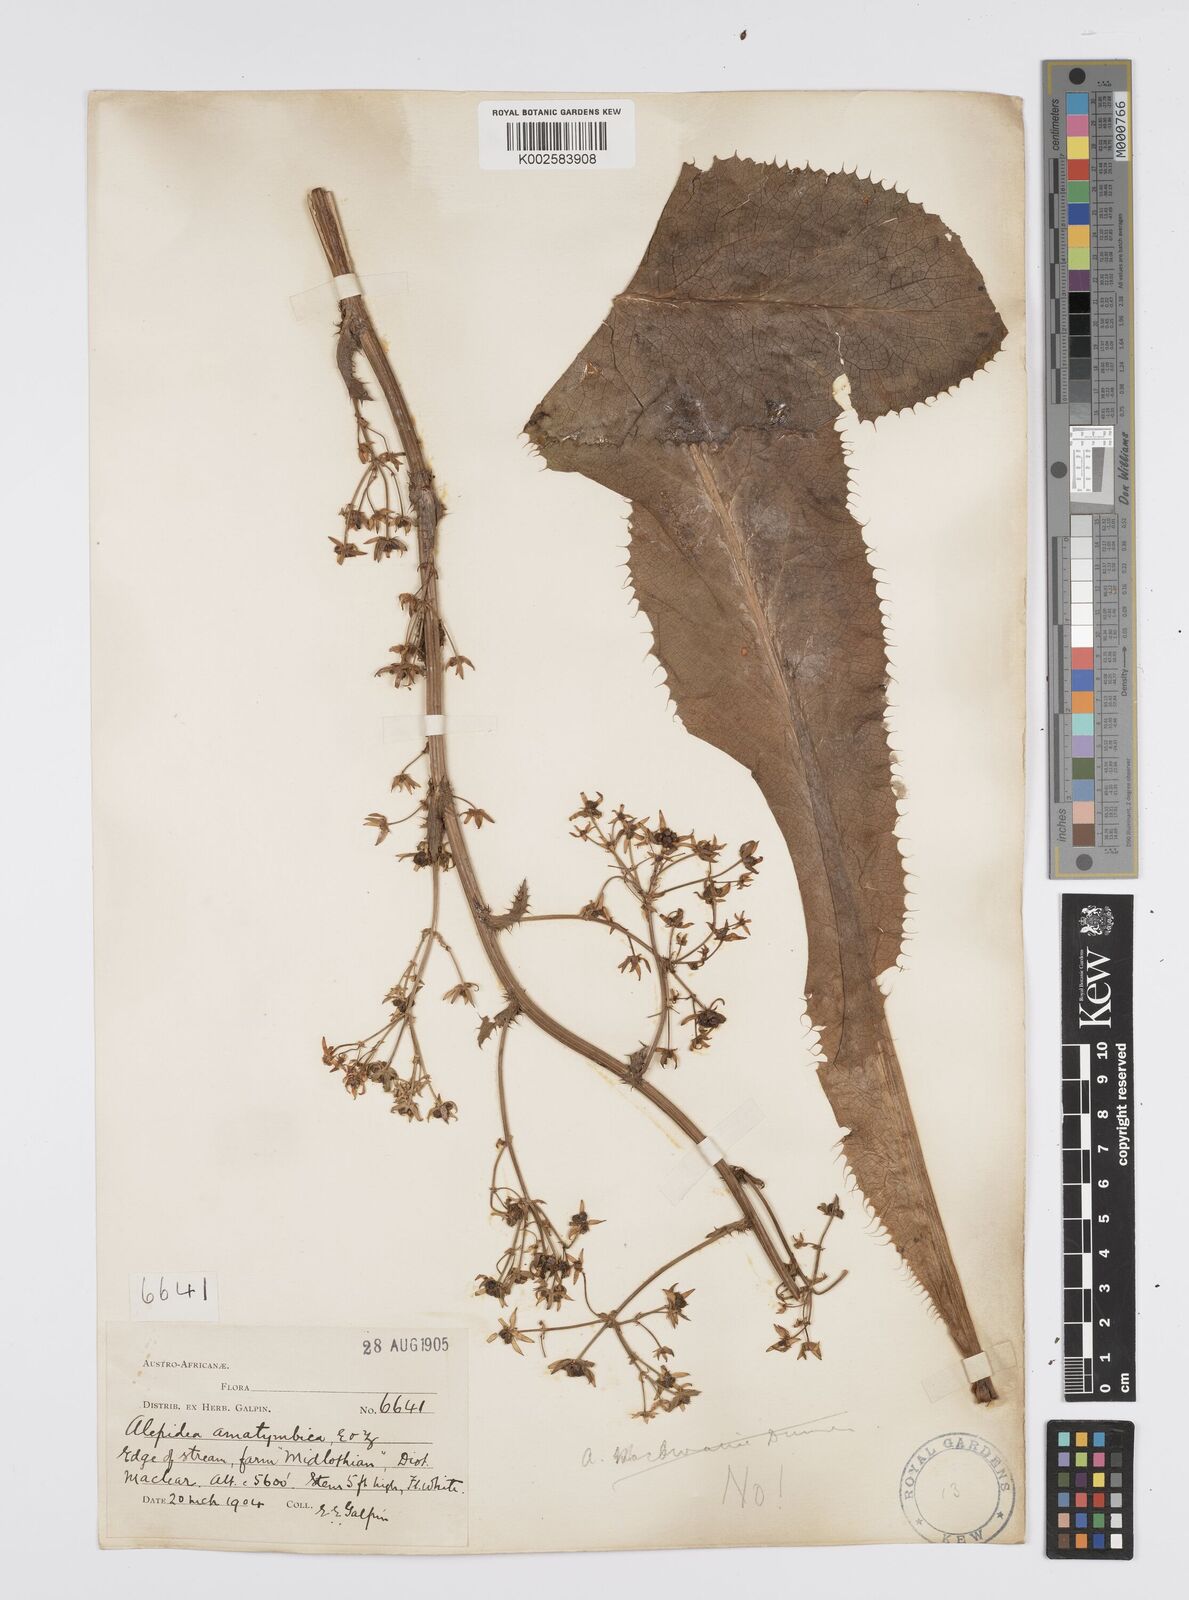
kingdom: Plantae
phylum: Tracheophyta
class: Magnoliopsida
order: Apiales
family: Apiaceae
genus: Alepidea
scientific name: Alepidea amatymbica
